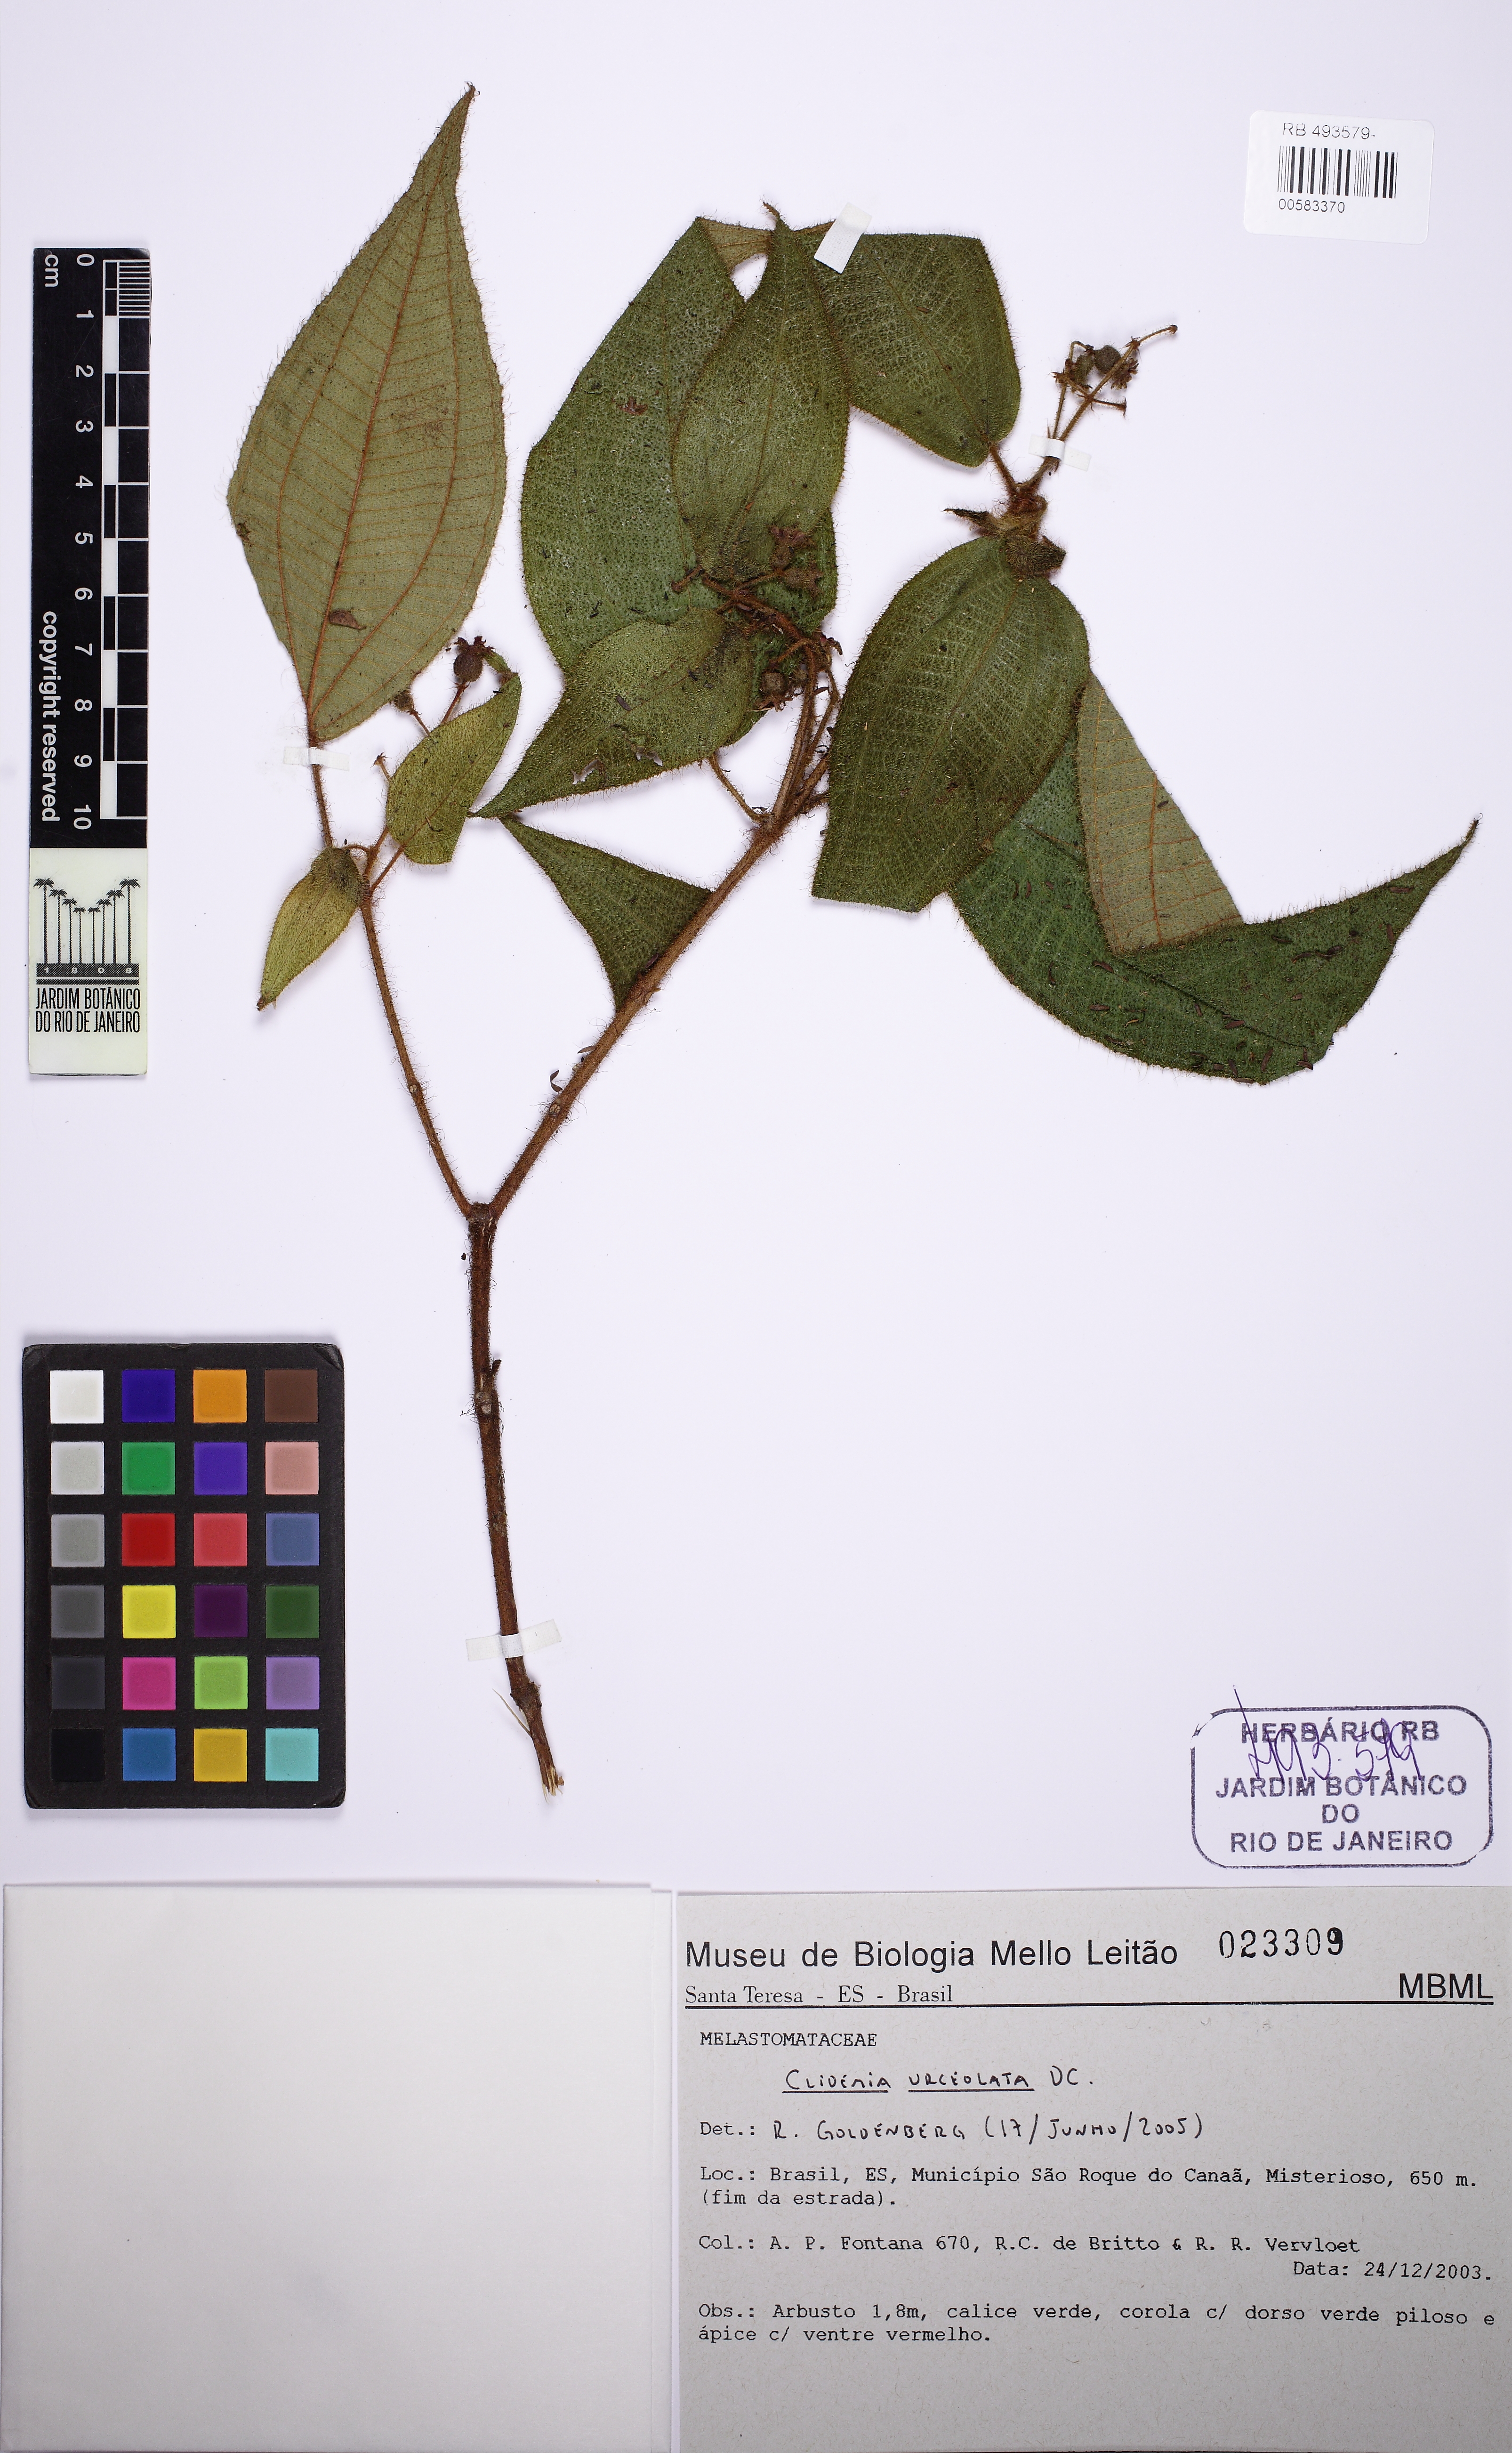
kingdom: Plantae
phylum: Tracheophyta
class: Magnoliopsida
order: Myrtales
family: Melastomataceae
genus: Miconia
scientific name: Miconia neourceolata
